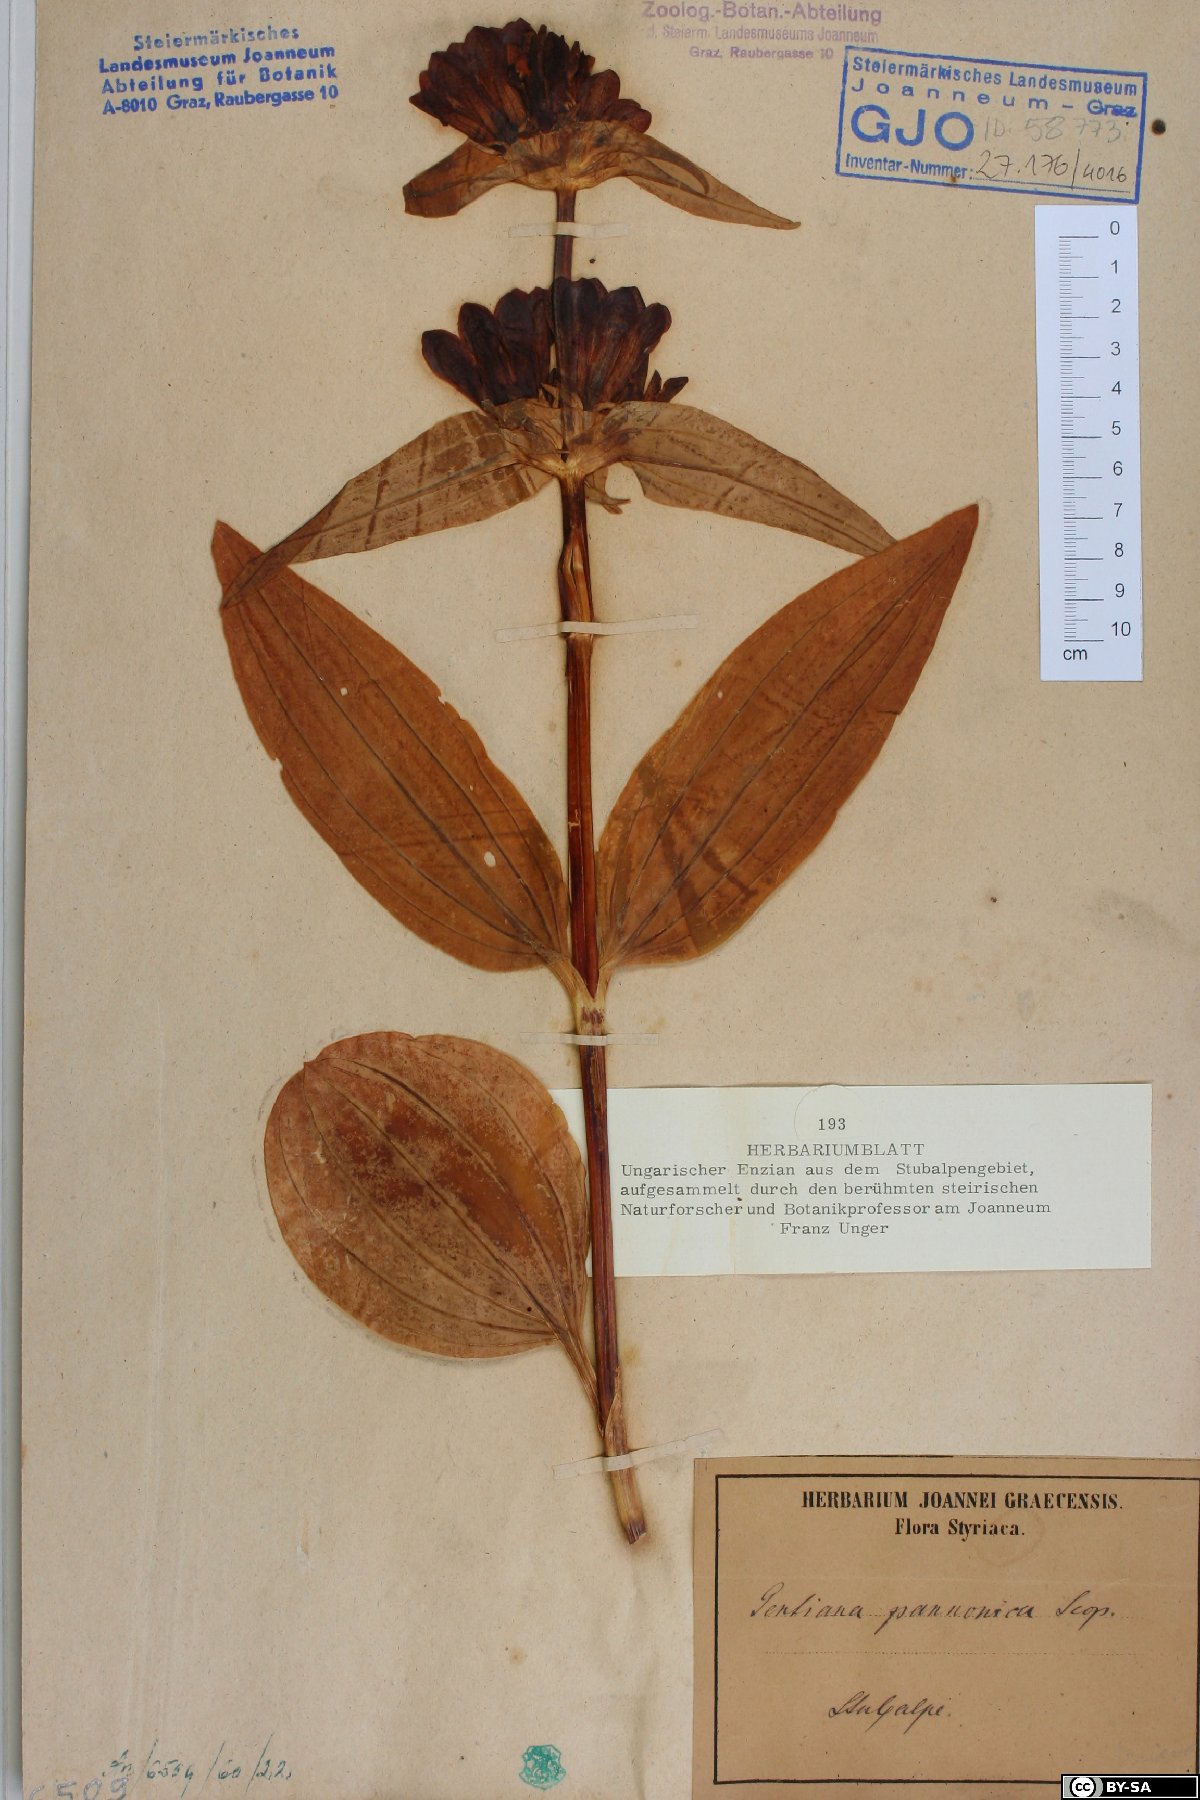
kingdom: Plantae
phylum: Tracheophyta
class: Magnoliopsida
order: Gentianales
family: Gentianaceae
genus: Gentiana
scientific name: Gentiana pannonica
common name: Hungarian gentian
